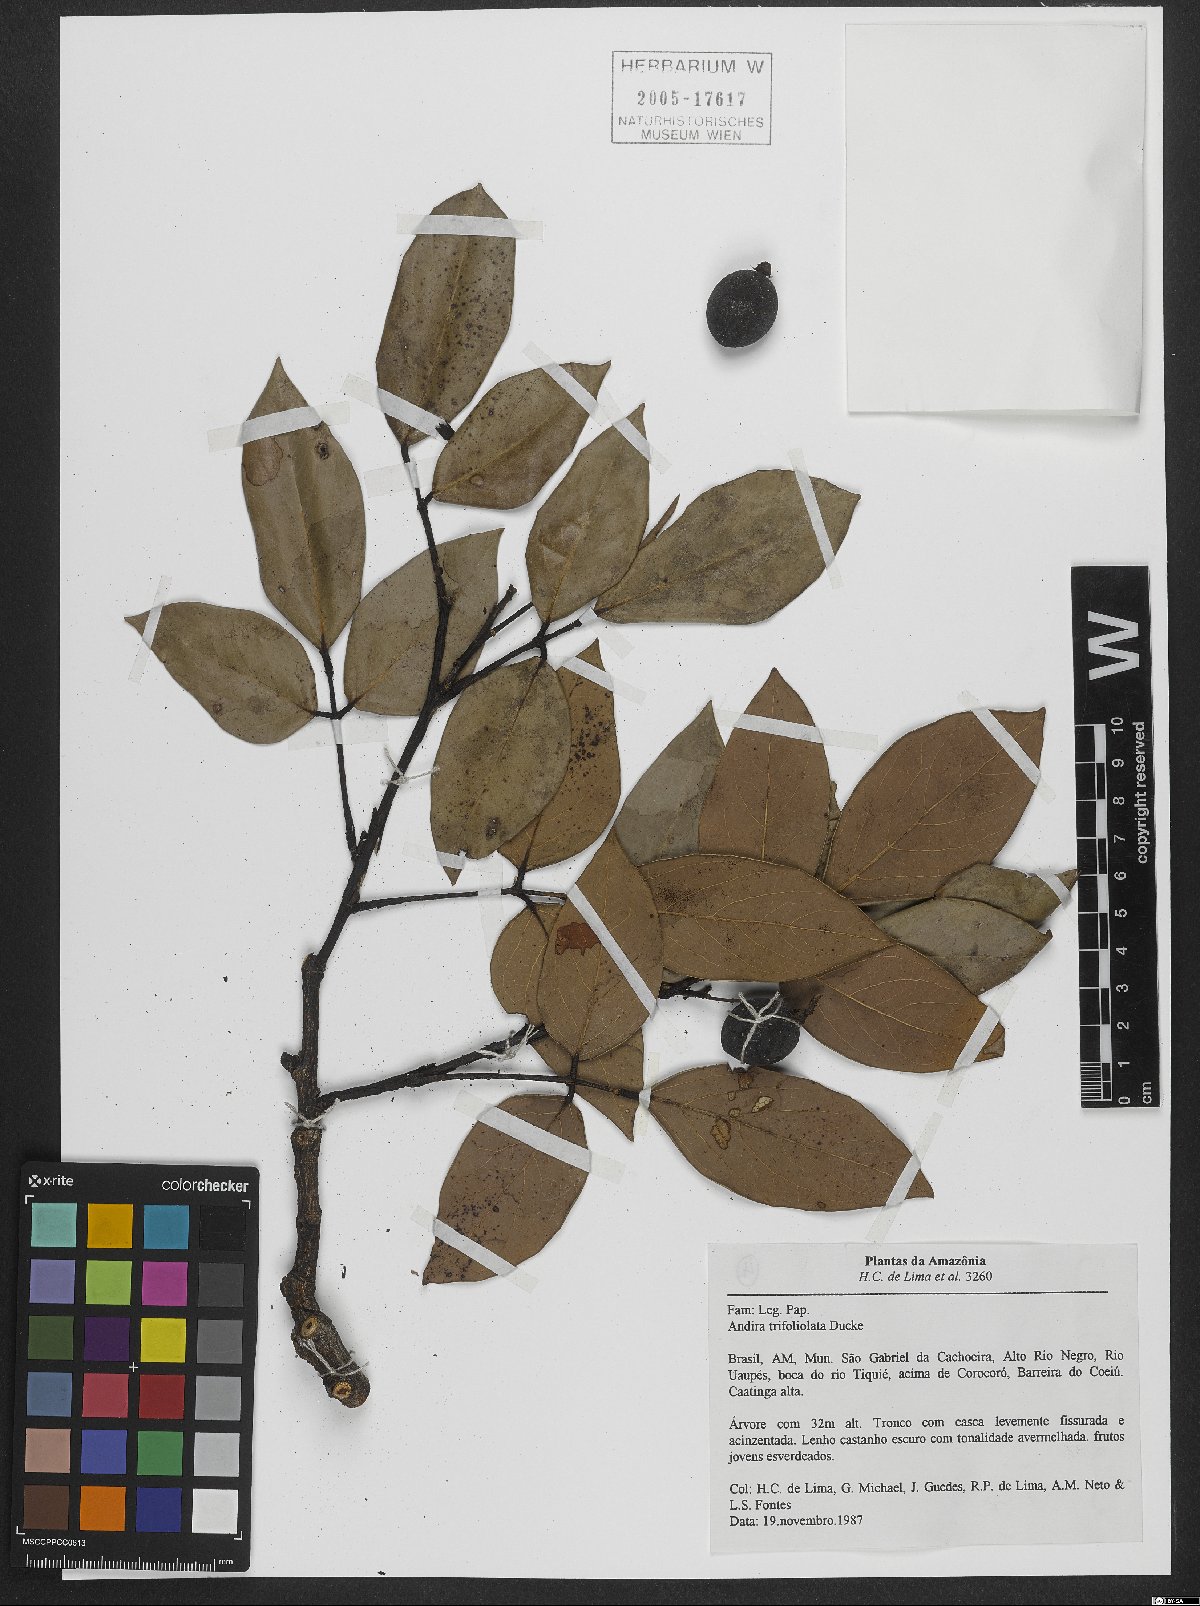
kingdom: Plantae
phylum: Tracheophyta
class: Magnoliopsida
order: Fabales
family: Fabaceae
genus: Andira
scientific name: Andira trifoliolata
